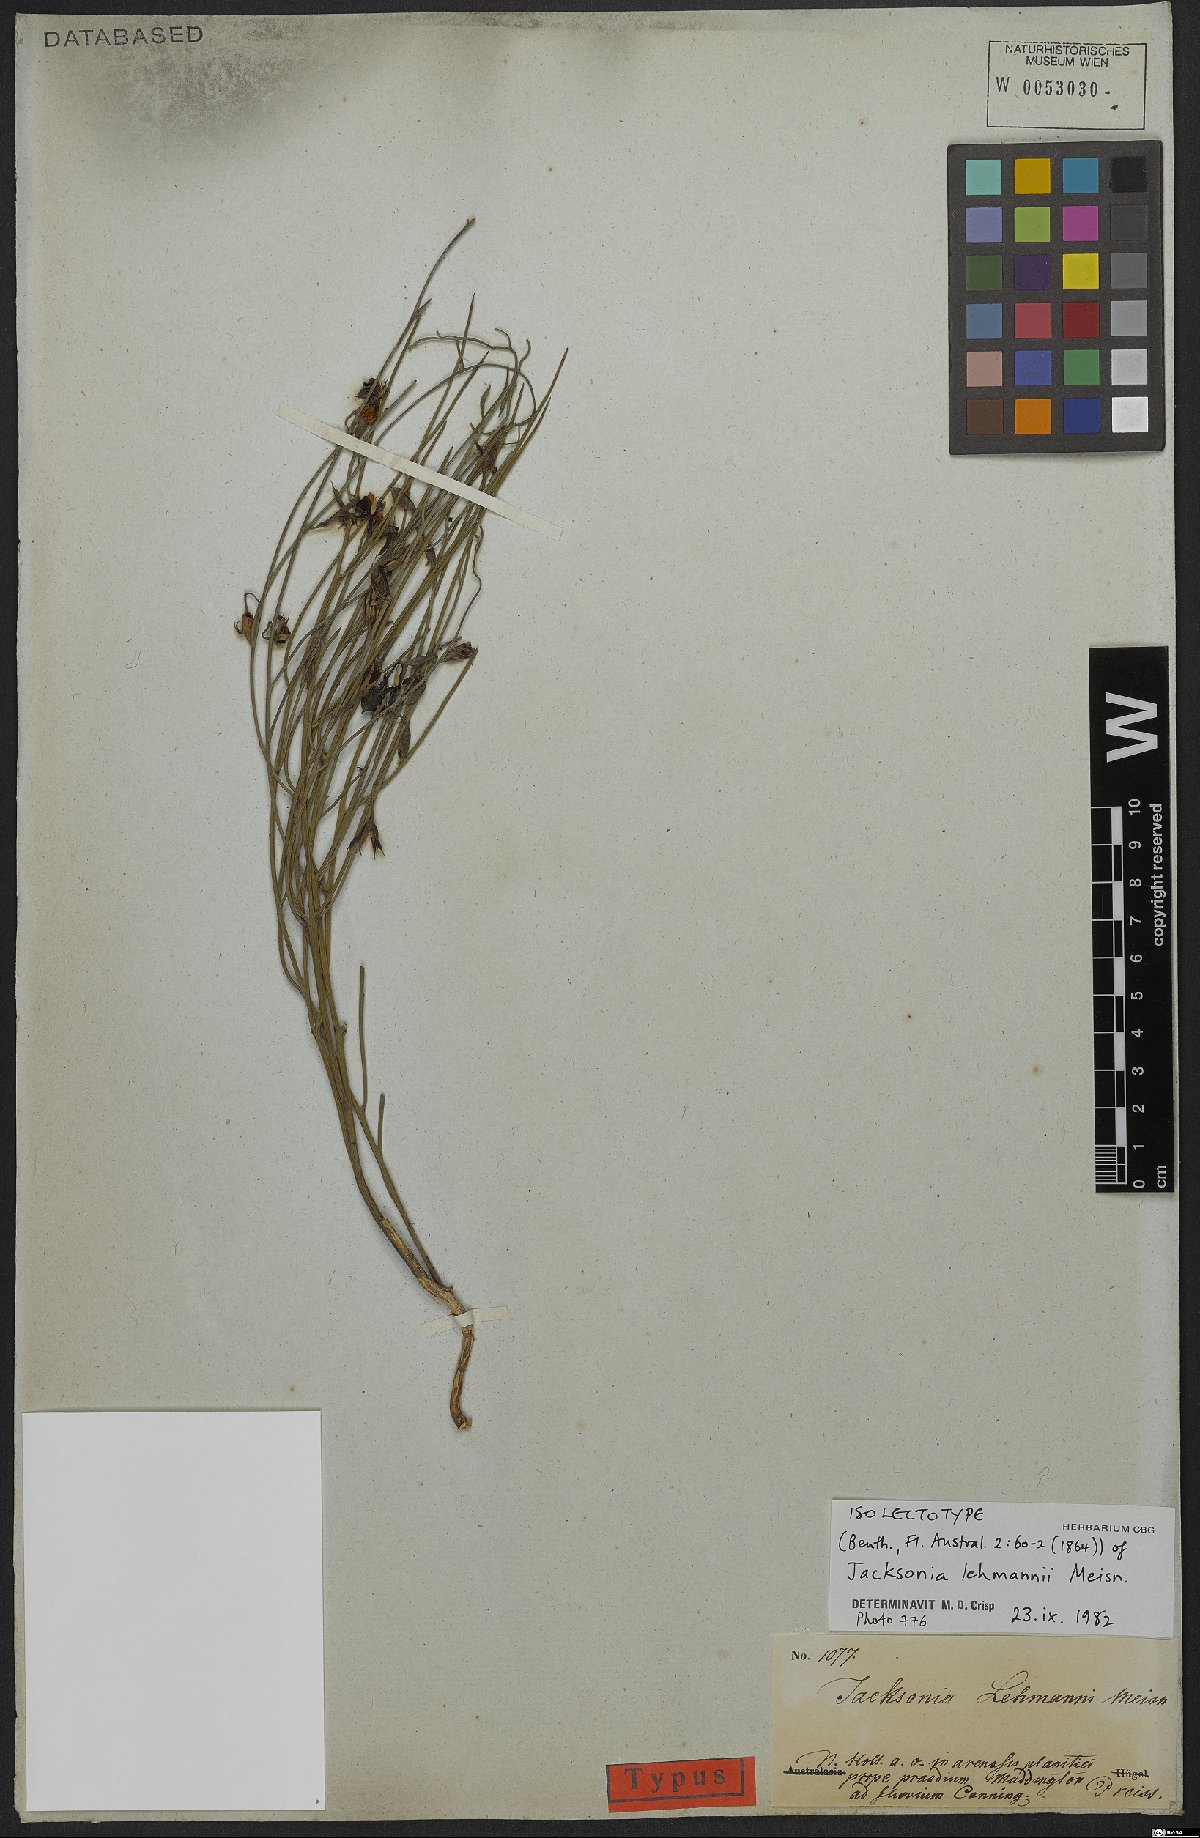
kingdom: Plantae
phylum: Tracheophyta
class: Magnoliopsida
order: Fabales
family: Fabaceae
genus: Jacksonia
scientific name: Jacksonia lehmannii
